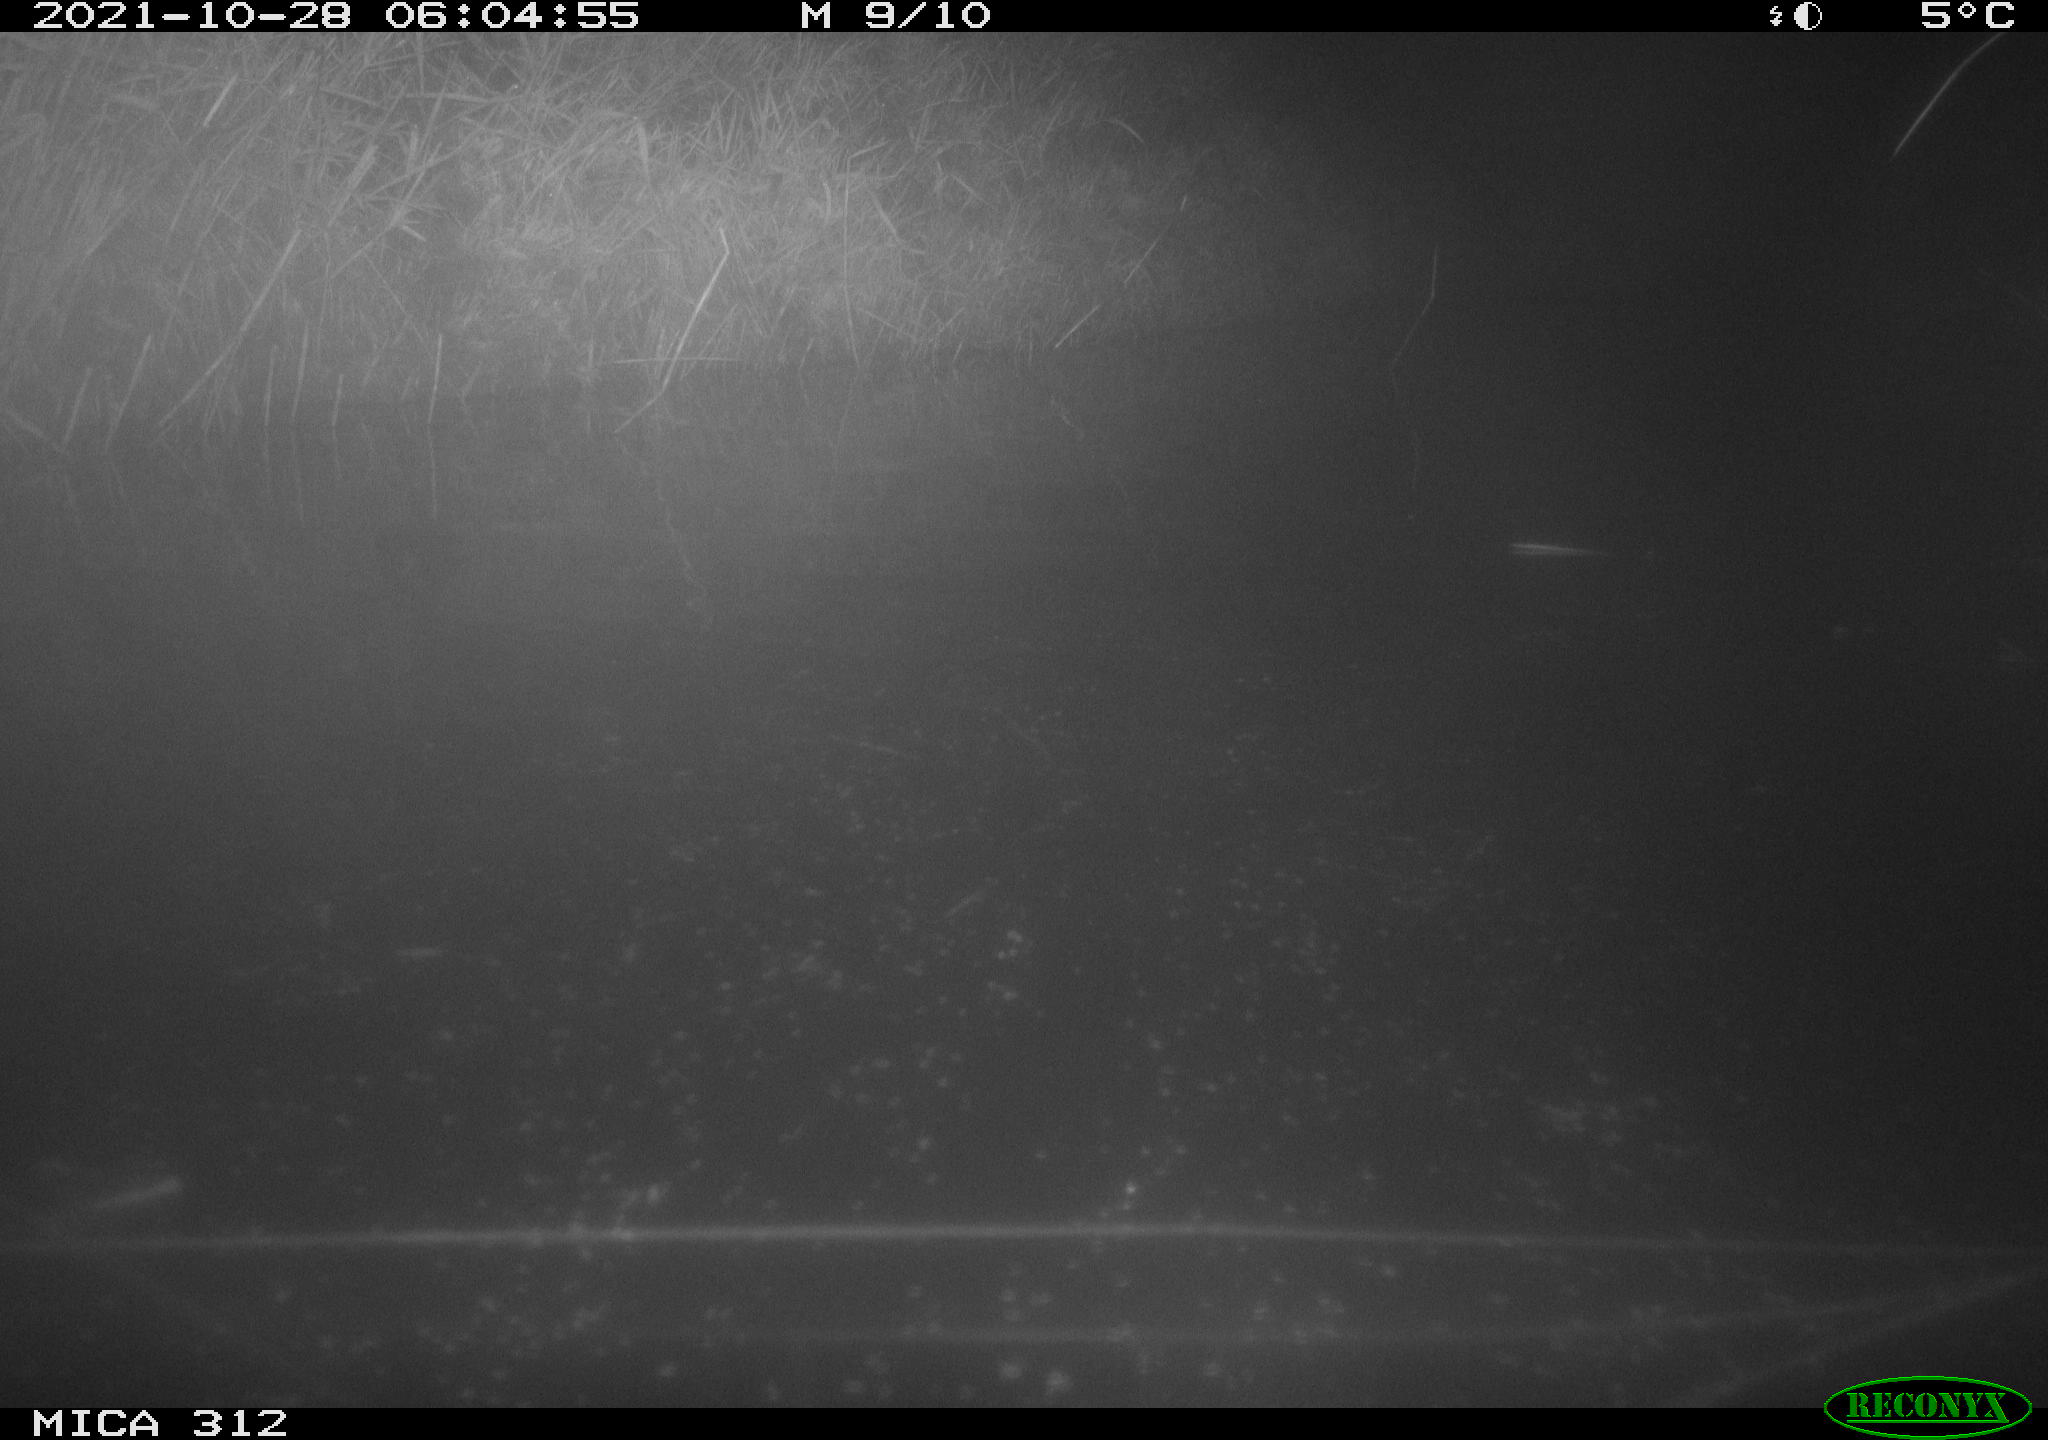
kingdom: Animalia
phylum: Chordata
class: Aves
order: Gruiformes
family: Rallidae
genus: Gallinula
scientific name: Gallinula chloropus
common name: Common moorhen
